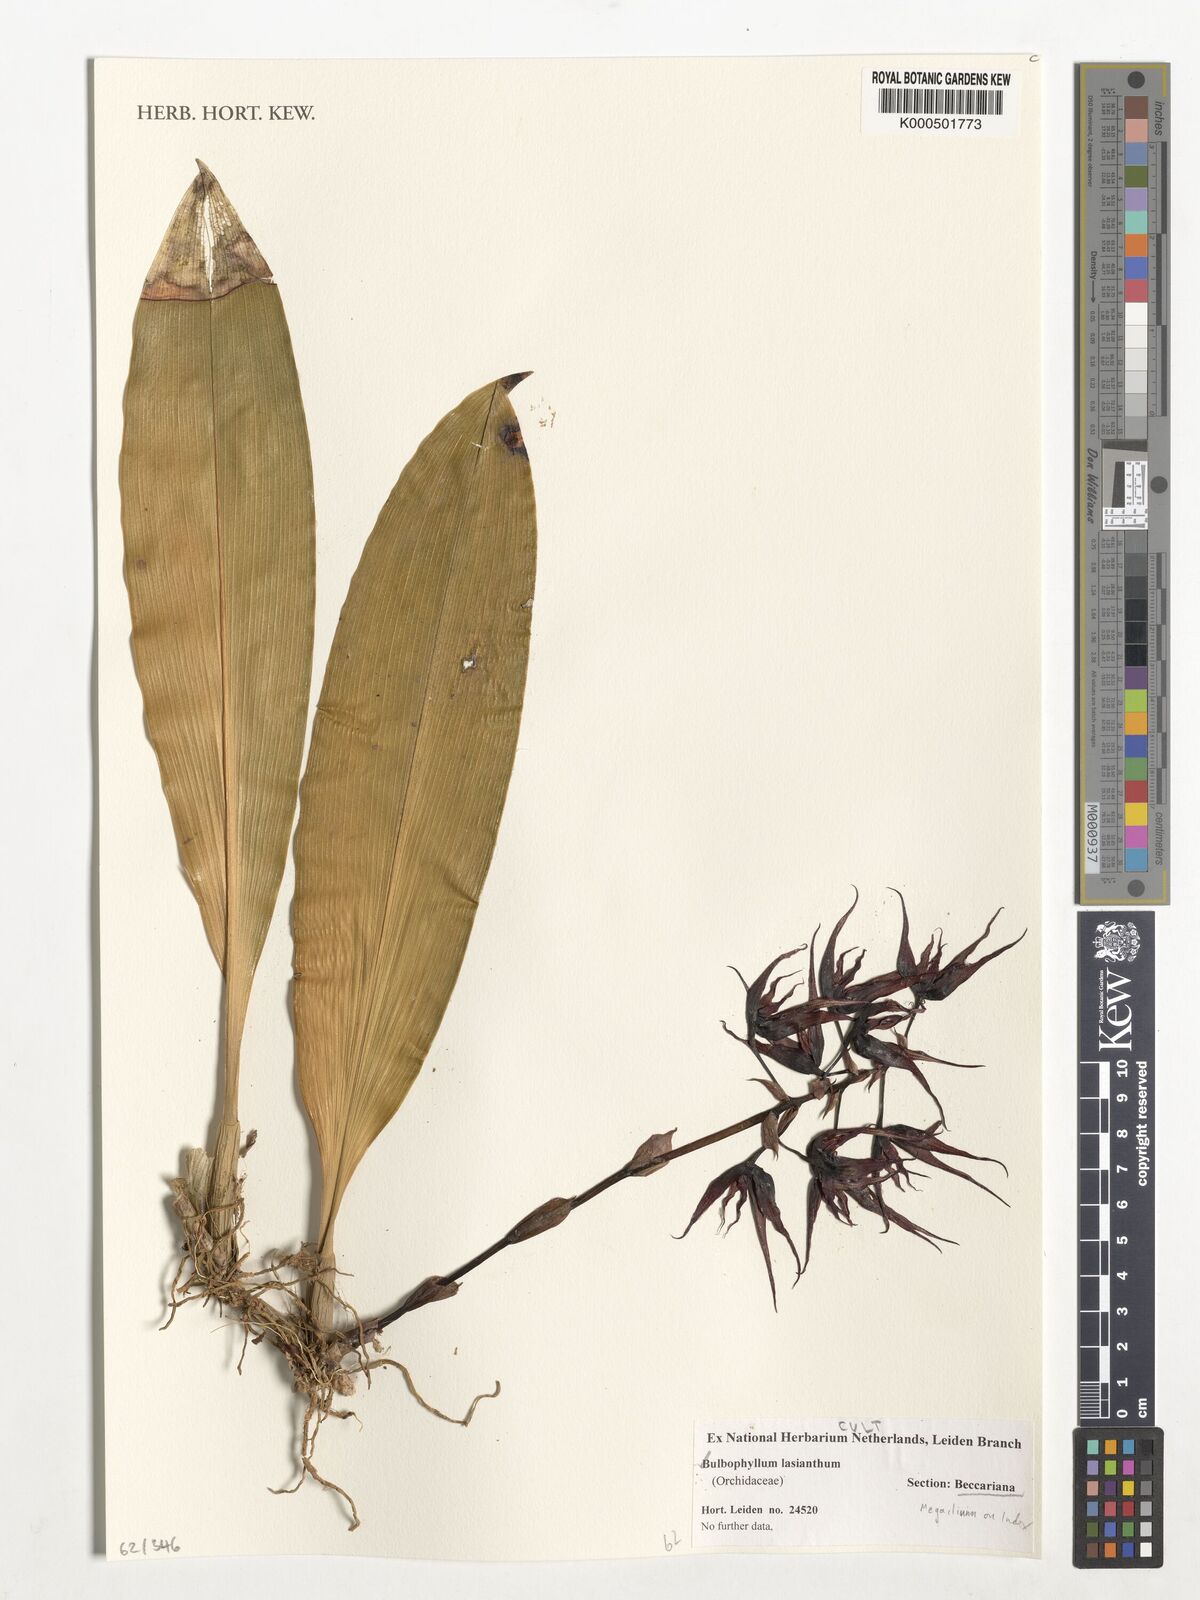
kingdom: Plantae
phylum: Tracheophyta
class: Liliopsida
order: Asparagales
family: Orchidaceae
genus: Bulbophyllum
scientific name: Bulbophyllum lasianthum
